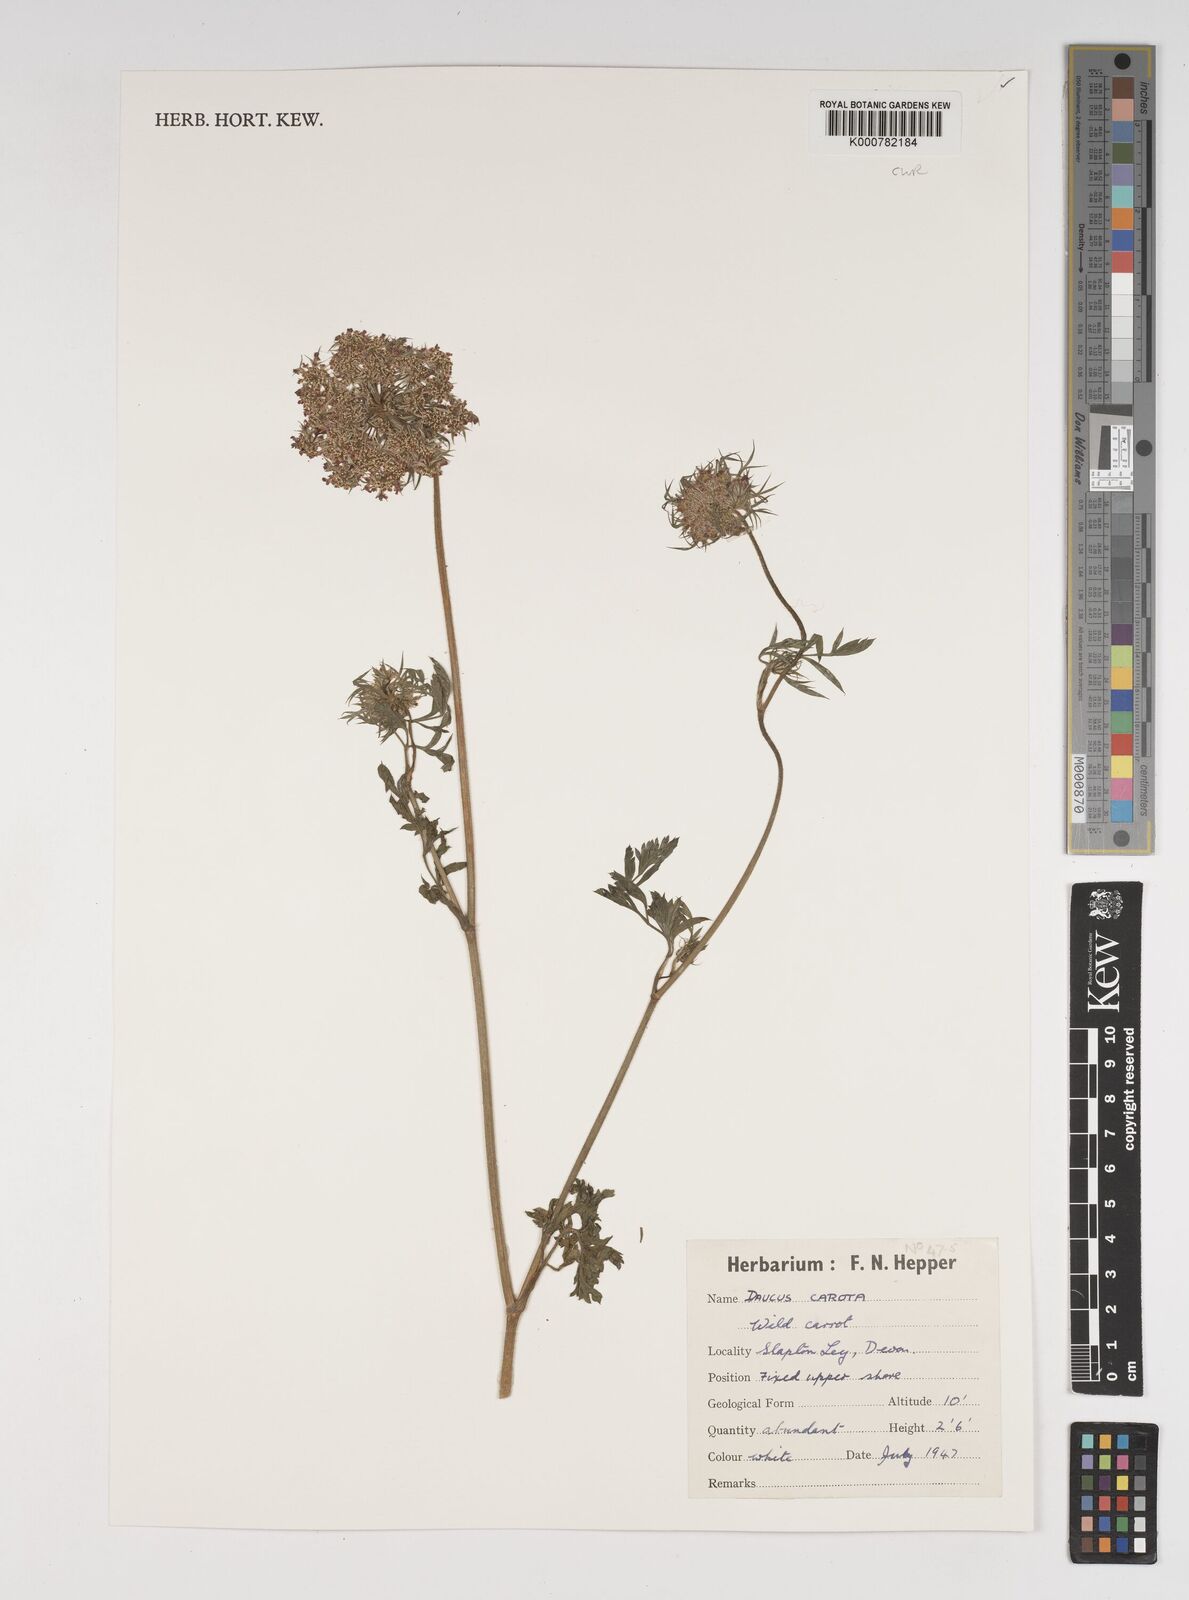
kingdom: Plantae
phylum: Tracheophyta
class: Magnoliopsida
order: Apiales
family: Apiaceae
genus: Daucus
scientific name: Daucus carota
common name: Wild carrot
